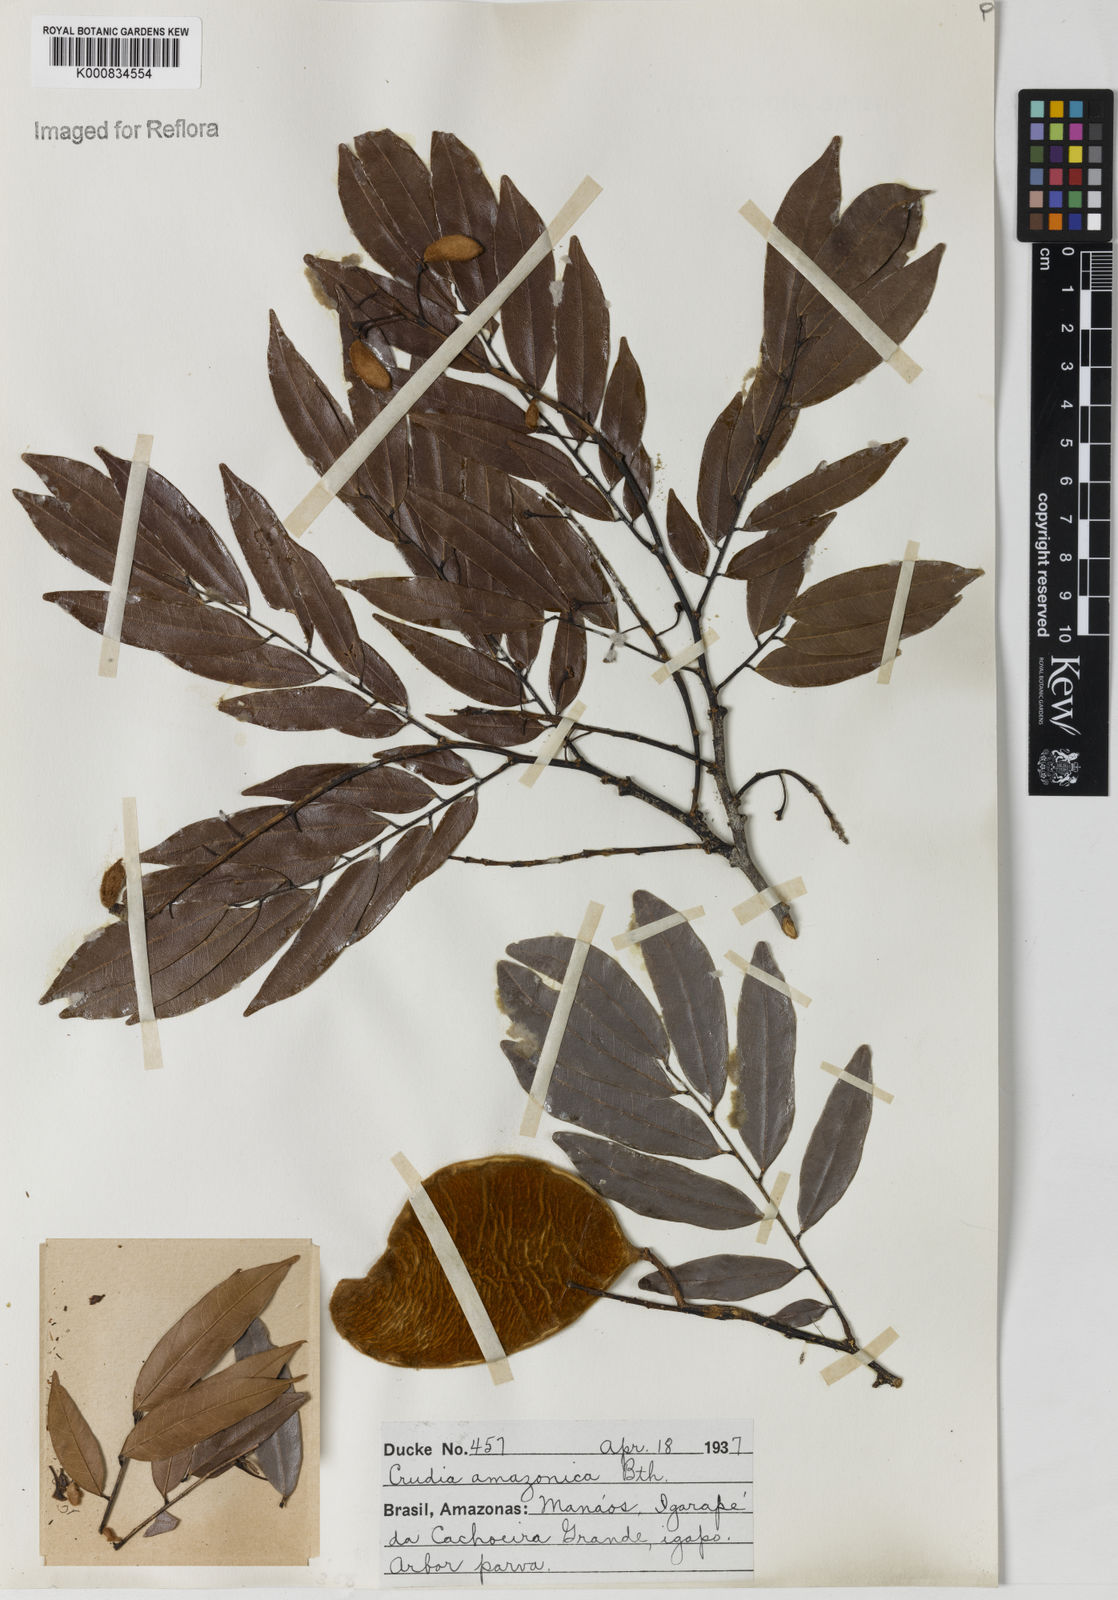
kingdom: Plantae
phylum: Tracheophyta
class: Magnoliopsida
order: Fabales
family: Fabaceae
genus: Crudia
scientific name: Crudia
